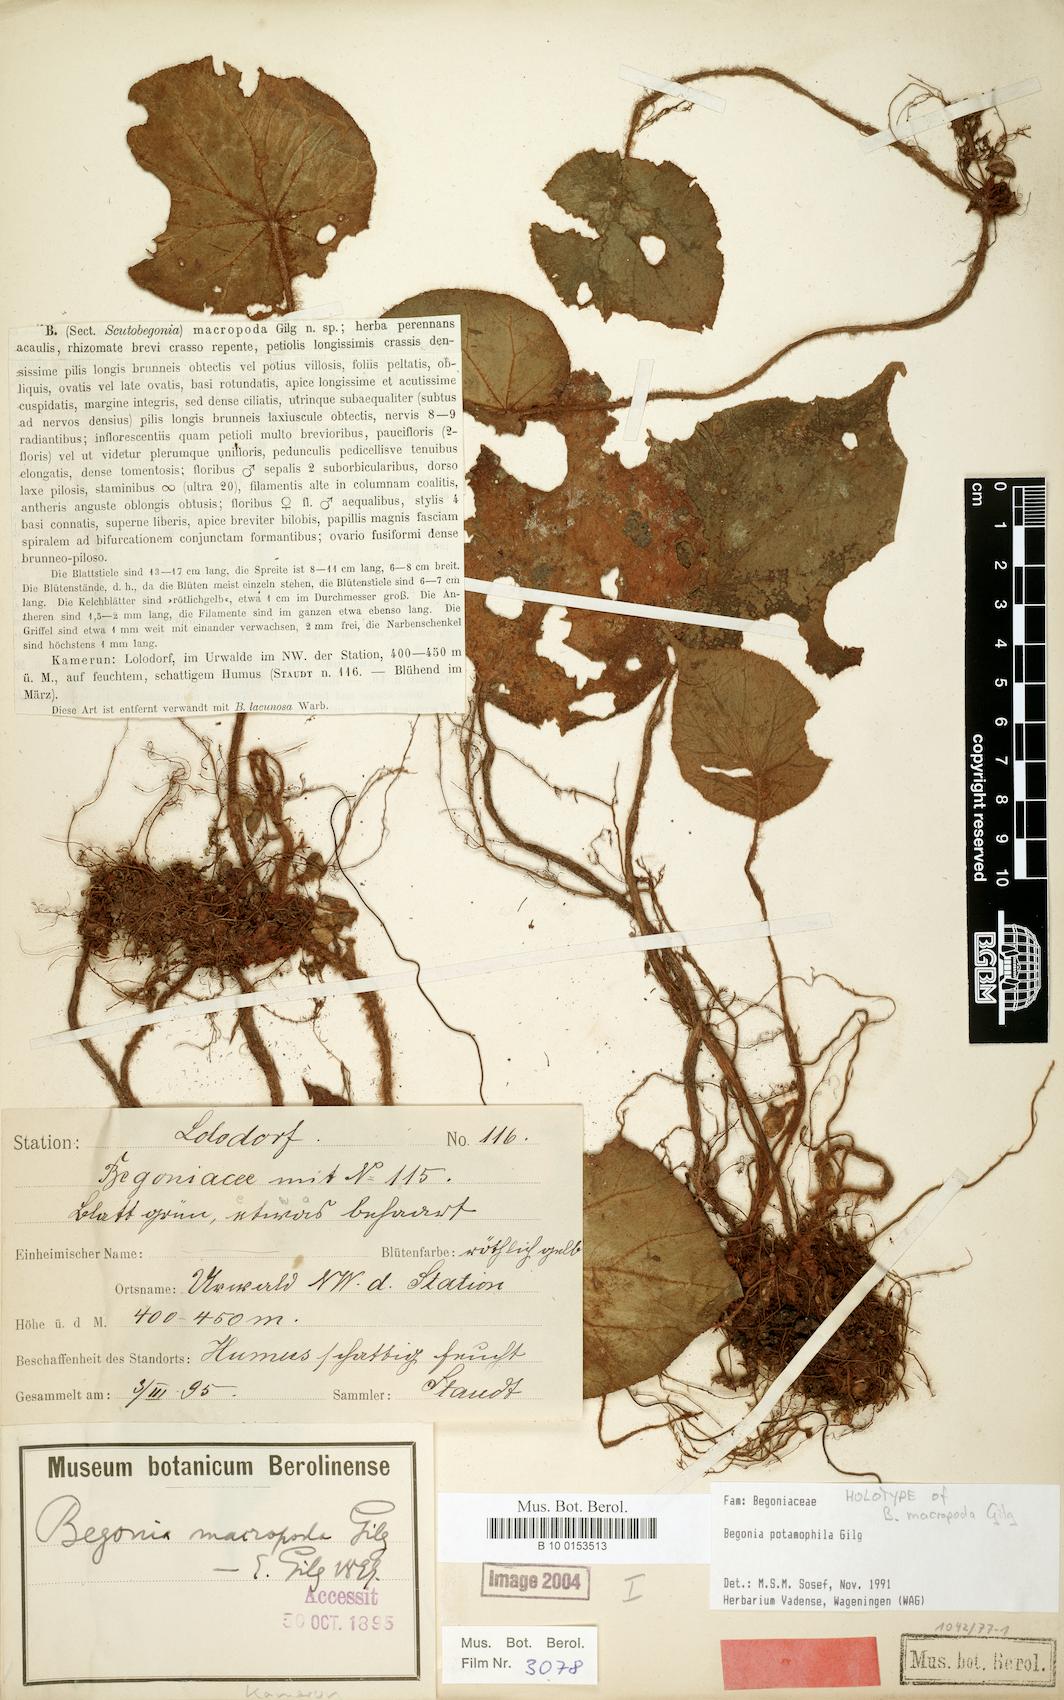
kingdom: Plantae
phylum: Tracheophyta
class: Magnoliopsida
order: Cucurbitales
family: Begoniaceae
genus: Begonia
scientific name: Begonia potamophila
